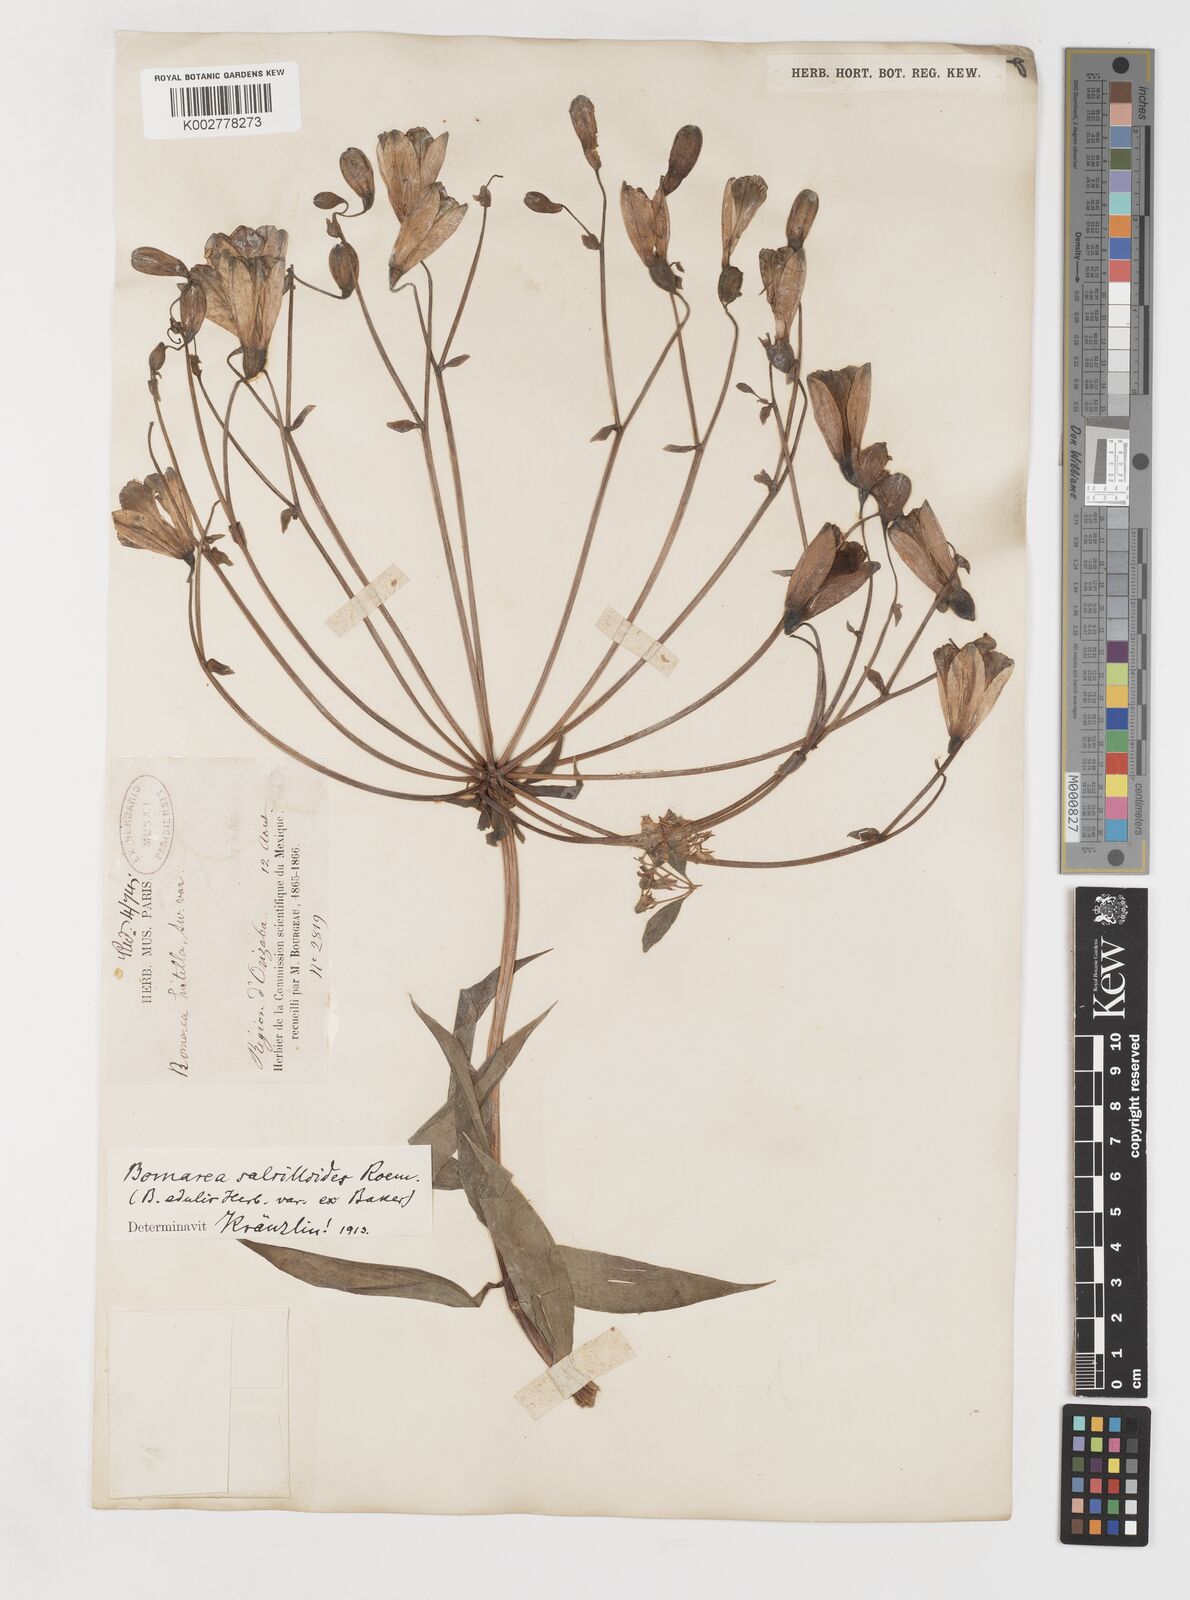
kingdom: Plantae
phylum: Tracheophyta
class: Liliopsida
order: Liliales
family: Alstroemeriaceae
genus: Bomarea
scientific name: Bomarea edulis
